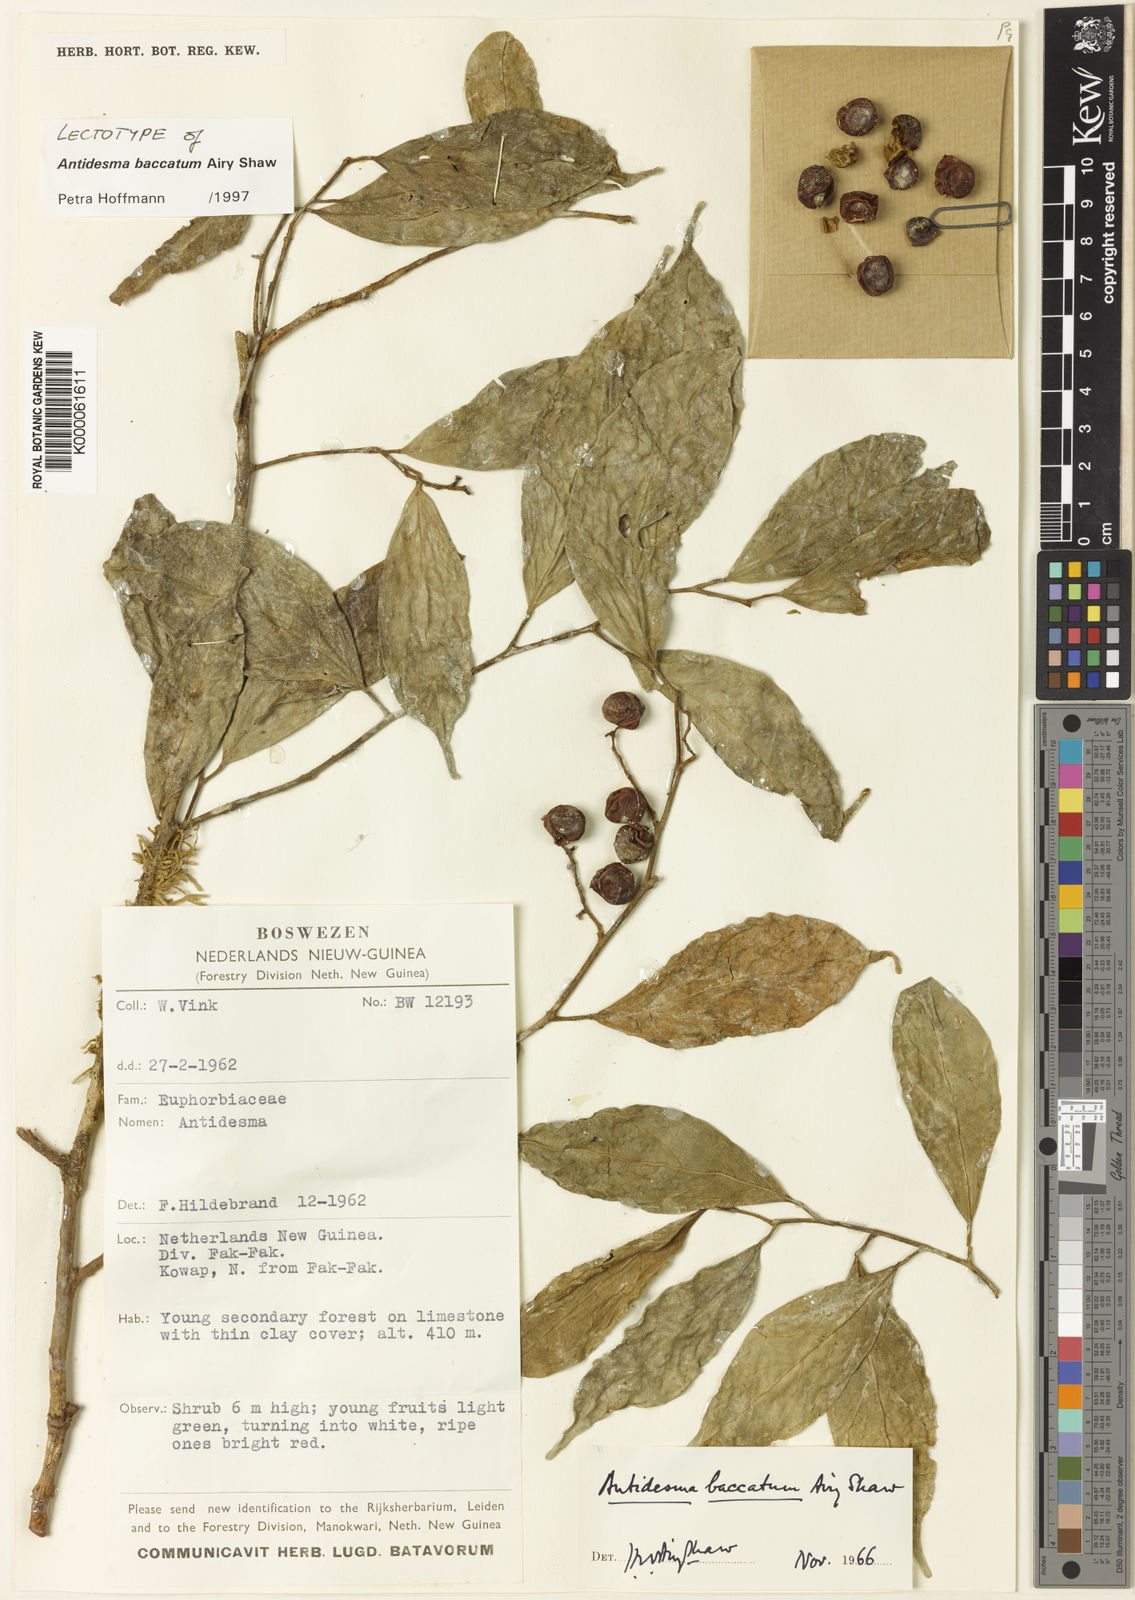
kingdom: Plantae
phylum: Tracheophyta
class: Magnoliopsida
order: Malpighiales
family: Phyllanthaceae
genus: Antidesma
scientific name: Antidesma baccatum
